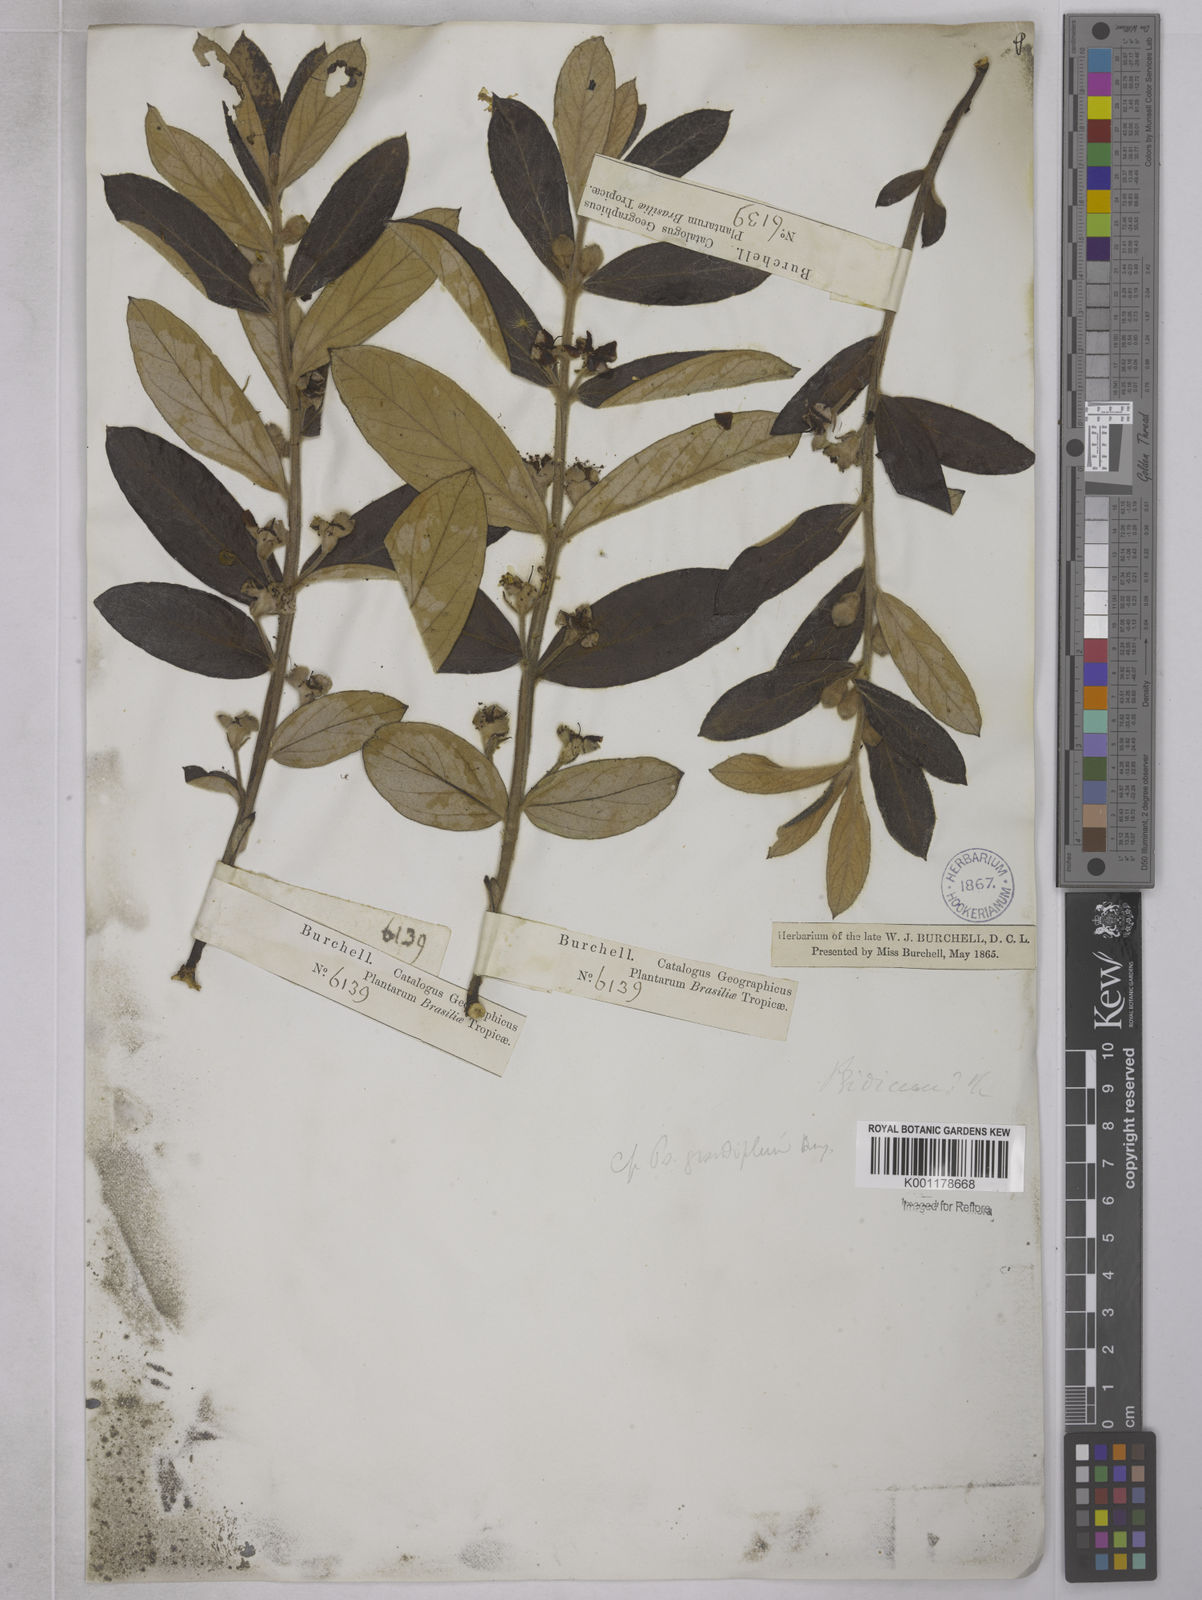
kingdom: Plantae
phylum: Tracheophyta
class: Magnoliopsida
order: Myrtales
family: Myrtaceae
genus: Psidium
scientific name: Psidium grandifolium
